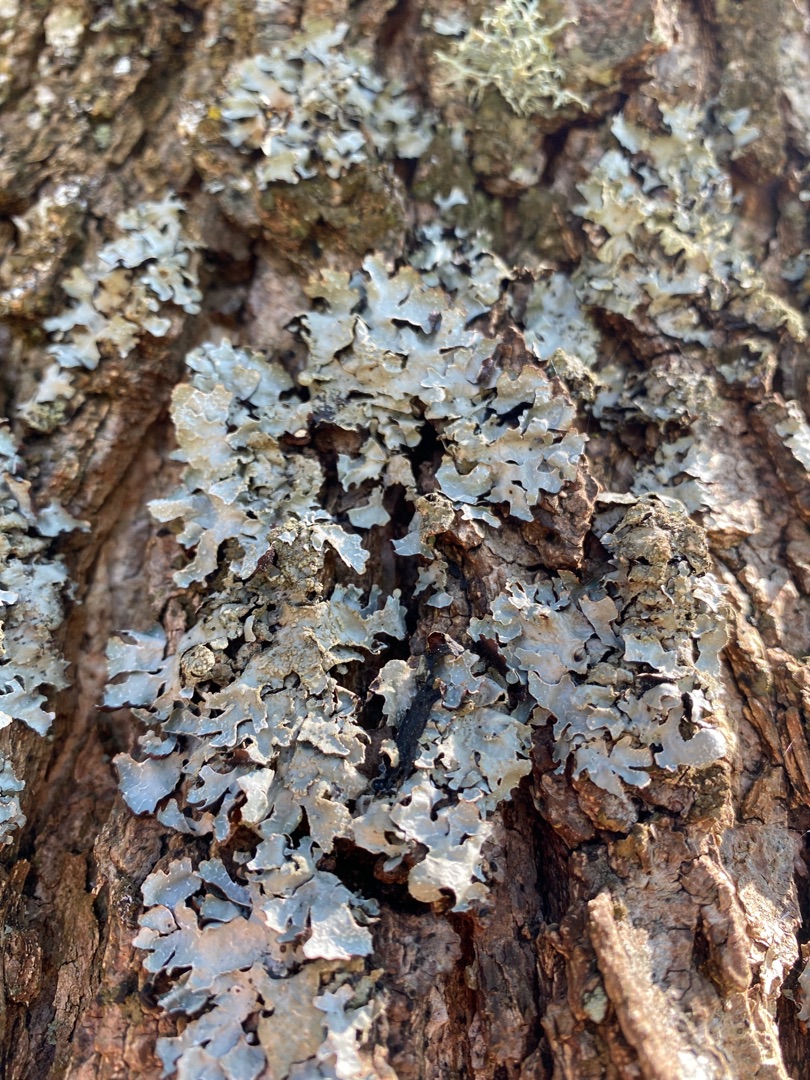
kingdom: Fungi
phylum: Ascomycota
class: Lecanoromycetes
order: Lecanorales
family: Parmeliaceae
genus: Parmelia
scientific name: Parmelia sulcata
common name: Rynket skållav
